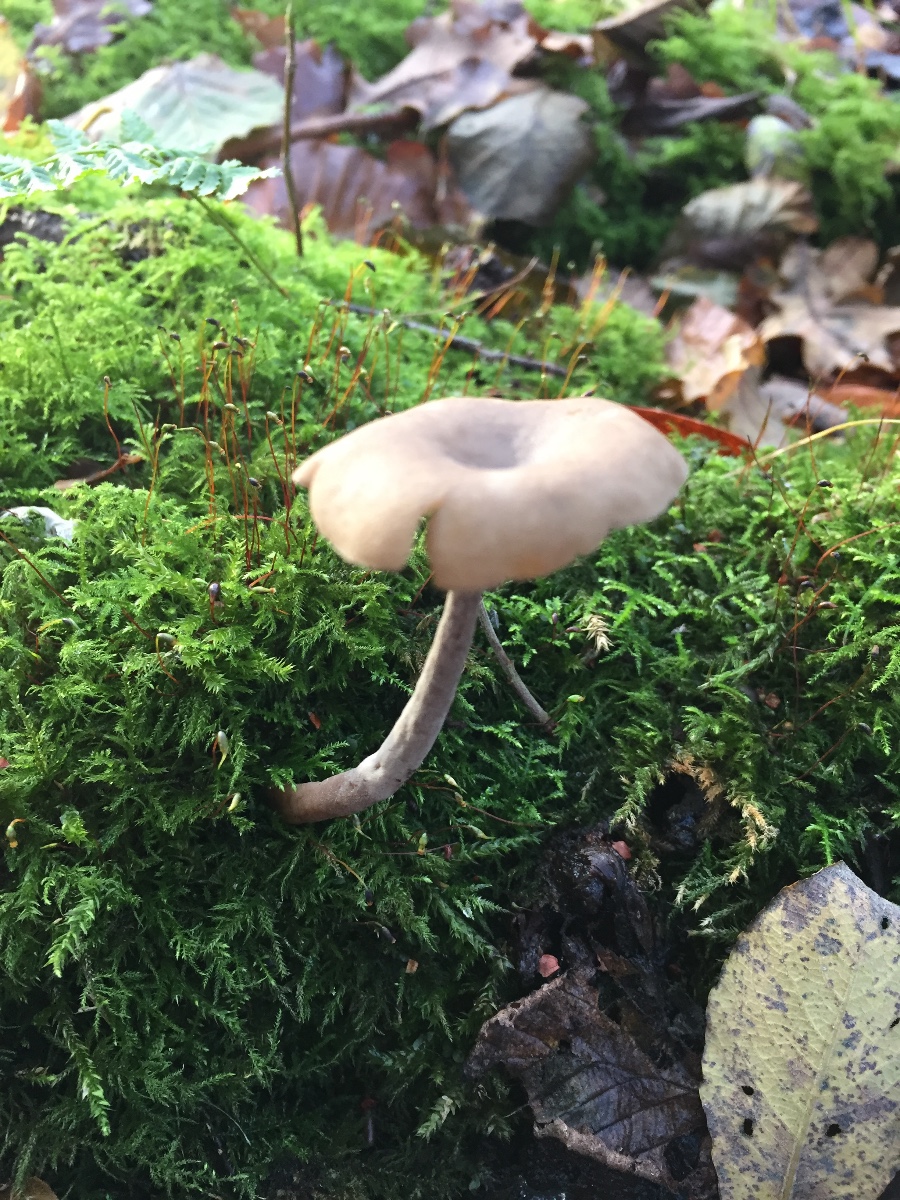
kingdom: Fungi
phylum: Ascomycota
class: Pezizomycetes
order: Pezizales
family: Helvellaceae
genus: Helvella
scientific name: Helvella
